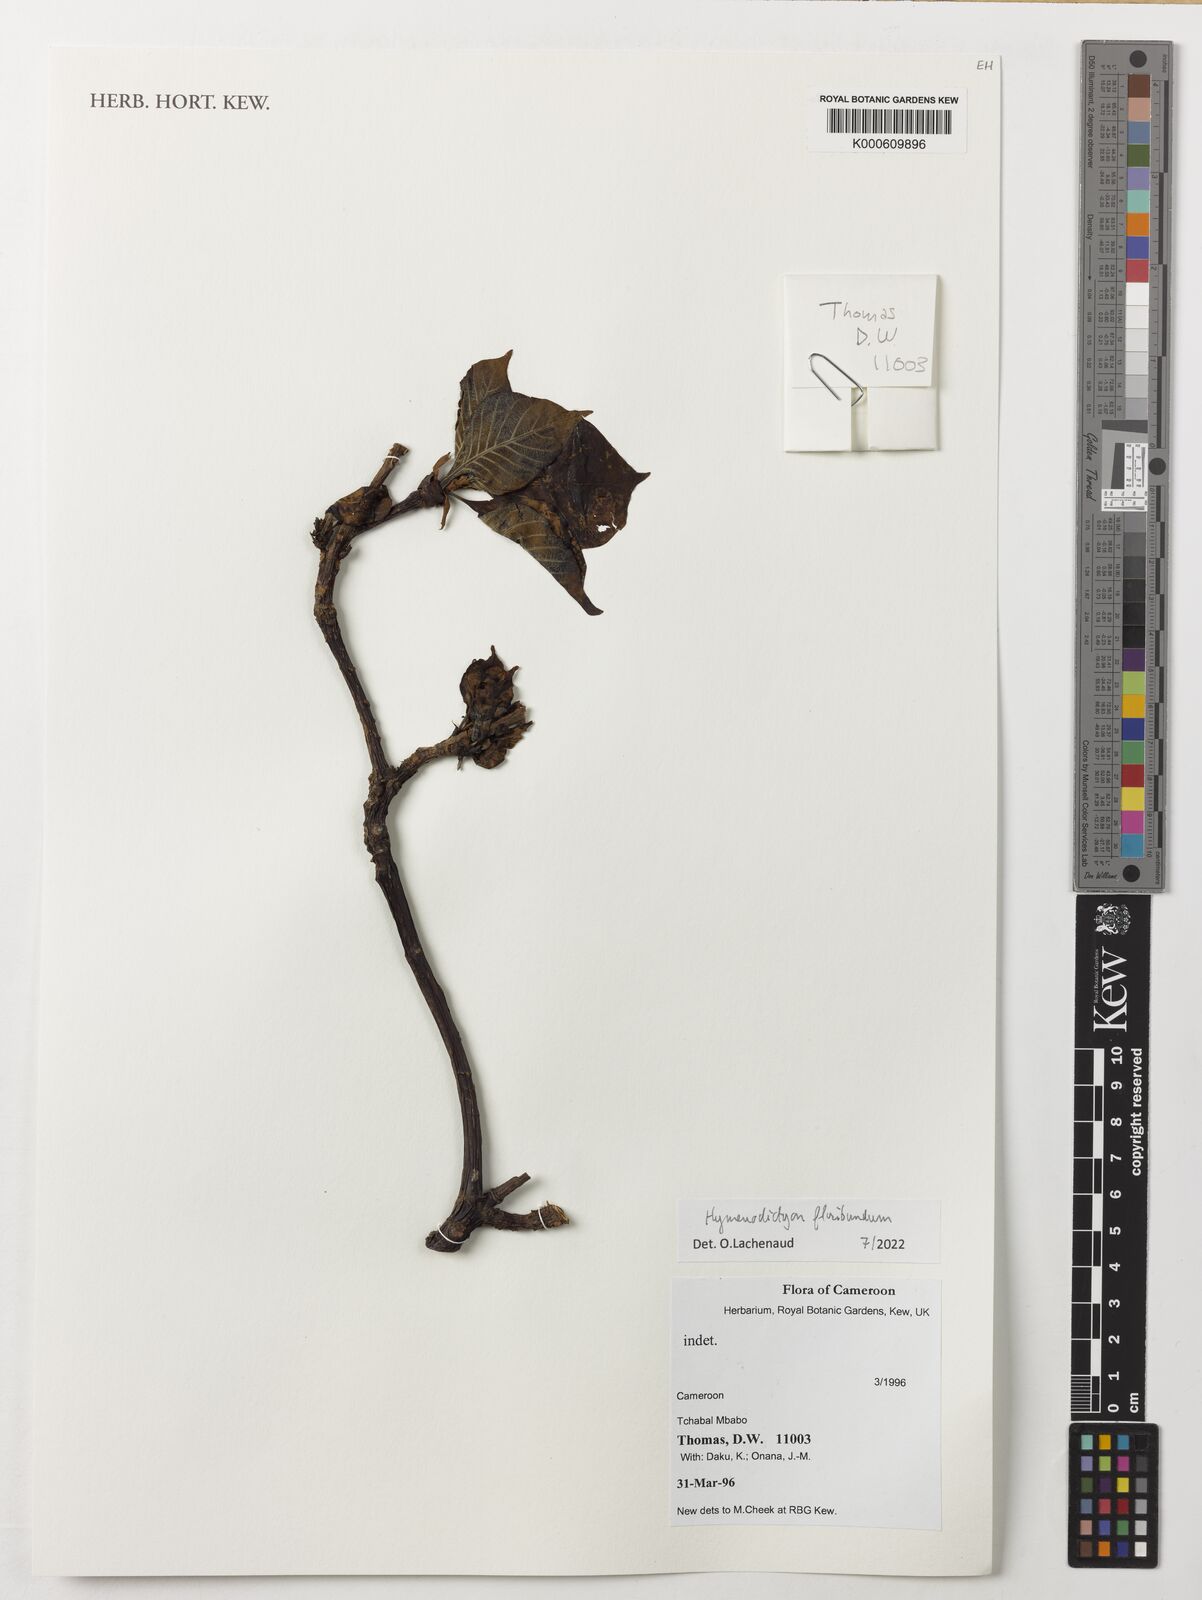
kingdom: Plantae
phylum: Tracheophyta
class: Magnoliopsida
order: Gentianales
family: Rubiaceae
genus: Hymenodictyon
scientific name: Hymenodictyon floribundum
